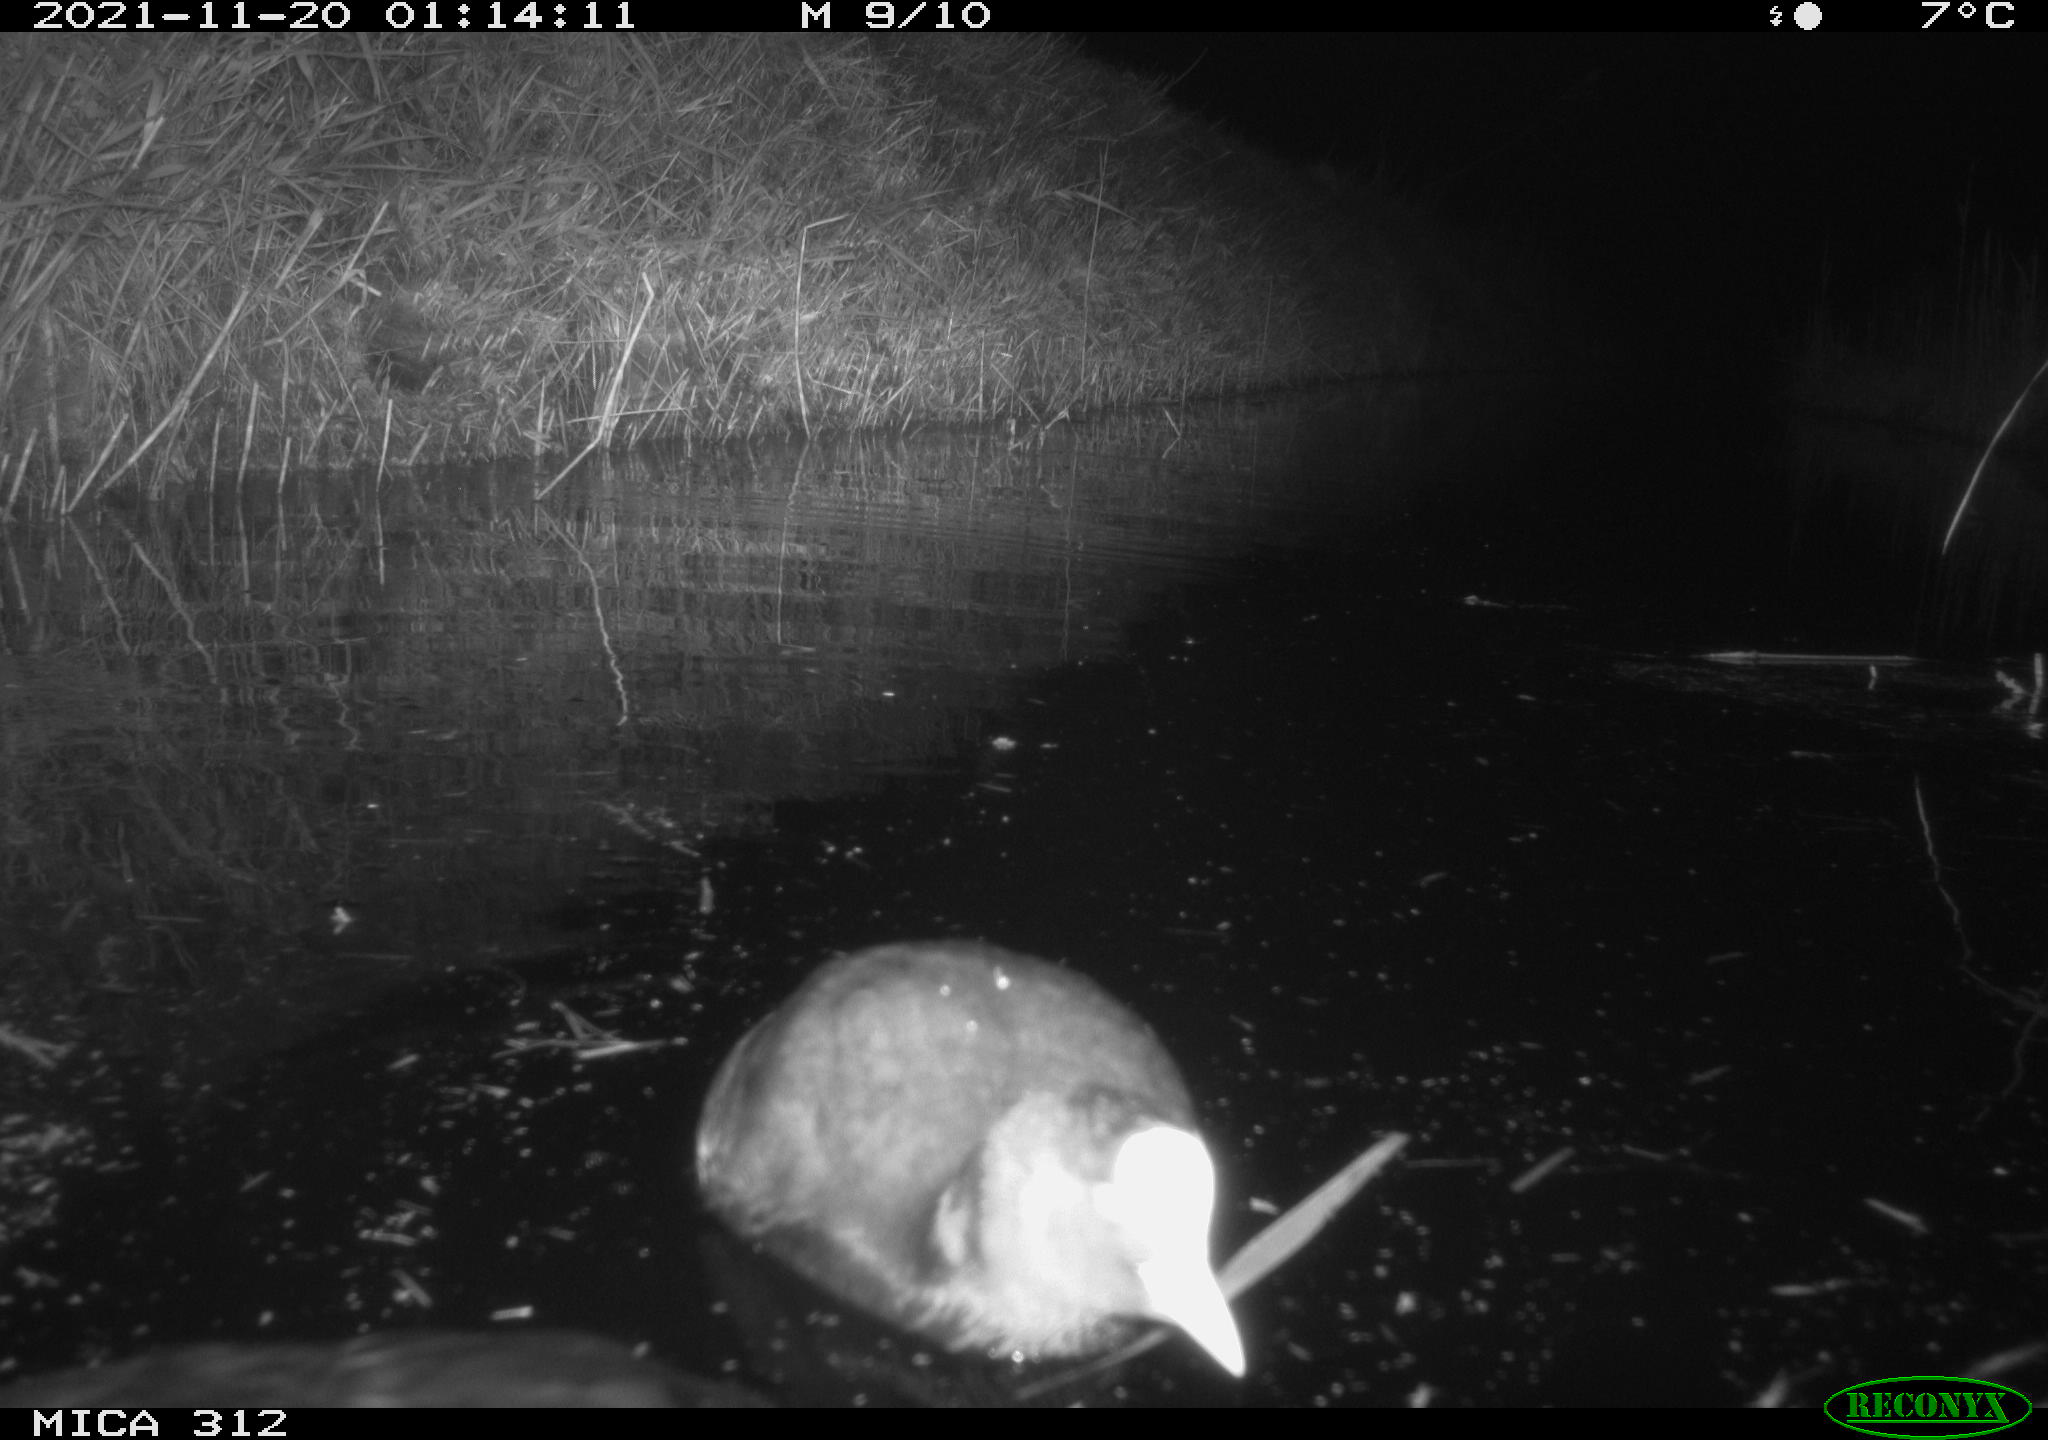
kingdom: Animalia
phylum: Chordata
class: Aves
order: Gruiformes
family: Rallidae
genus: Fulica
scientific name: Fulica atra
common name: Eurasian coot
